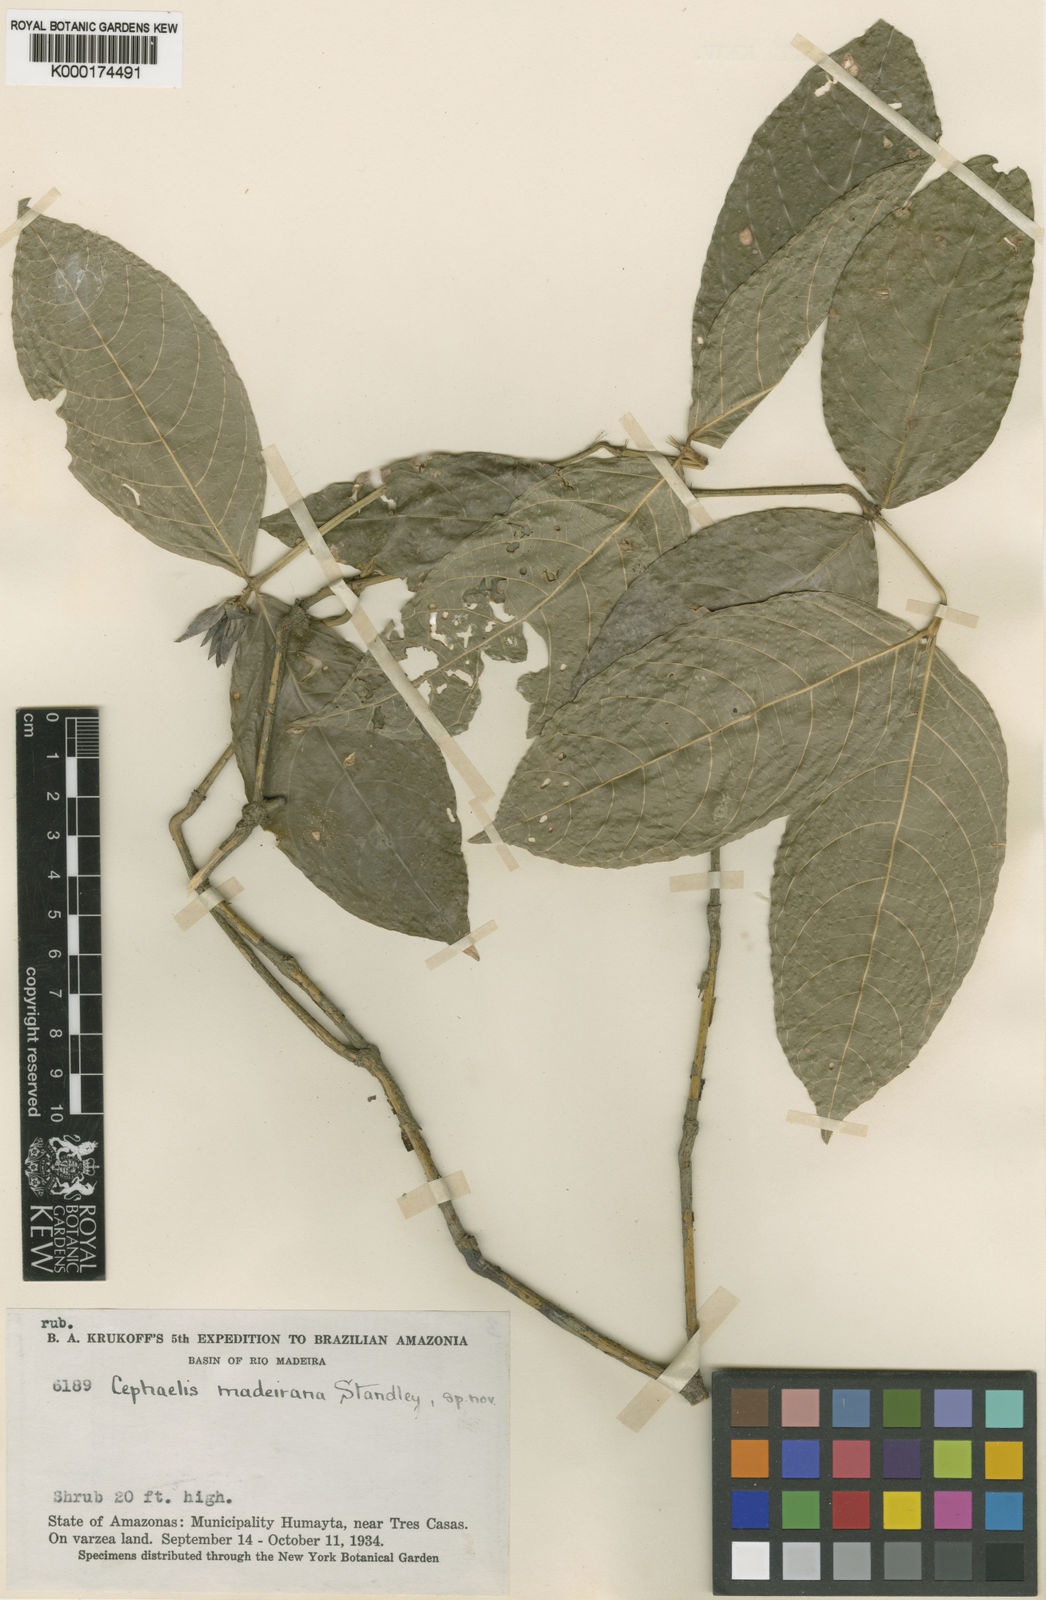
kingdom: Plantae
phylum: Tracheophyta
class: Magnoliopsida
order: Gentianales
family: Rubiaceae
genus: Psychotria
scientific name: Psychotria
